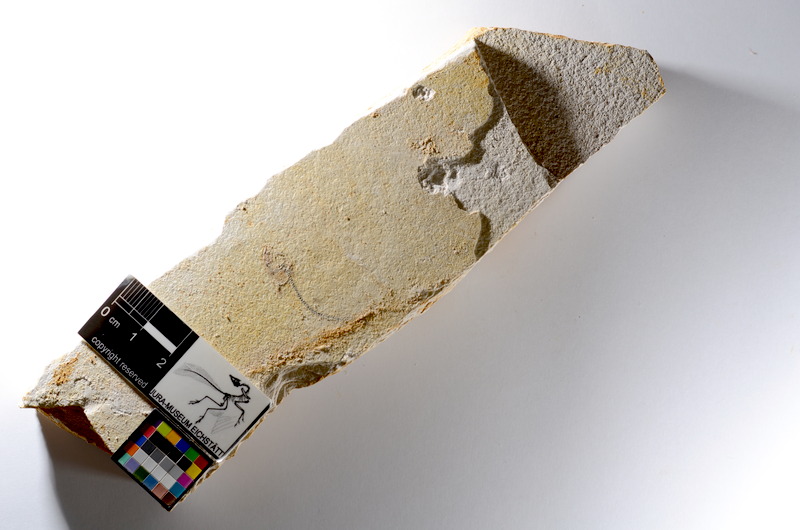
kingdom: Animalia
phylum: Chordata
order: Salmoniformes
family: Orthogonikleithridae
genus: Orthogonikleithrus
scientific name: Orthogonikleithrus hoelli
